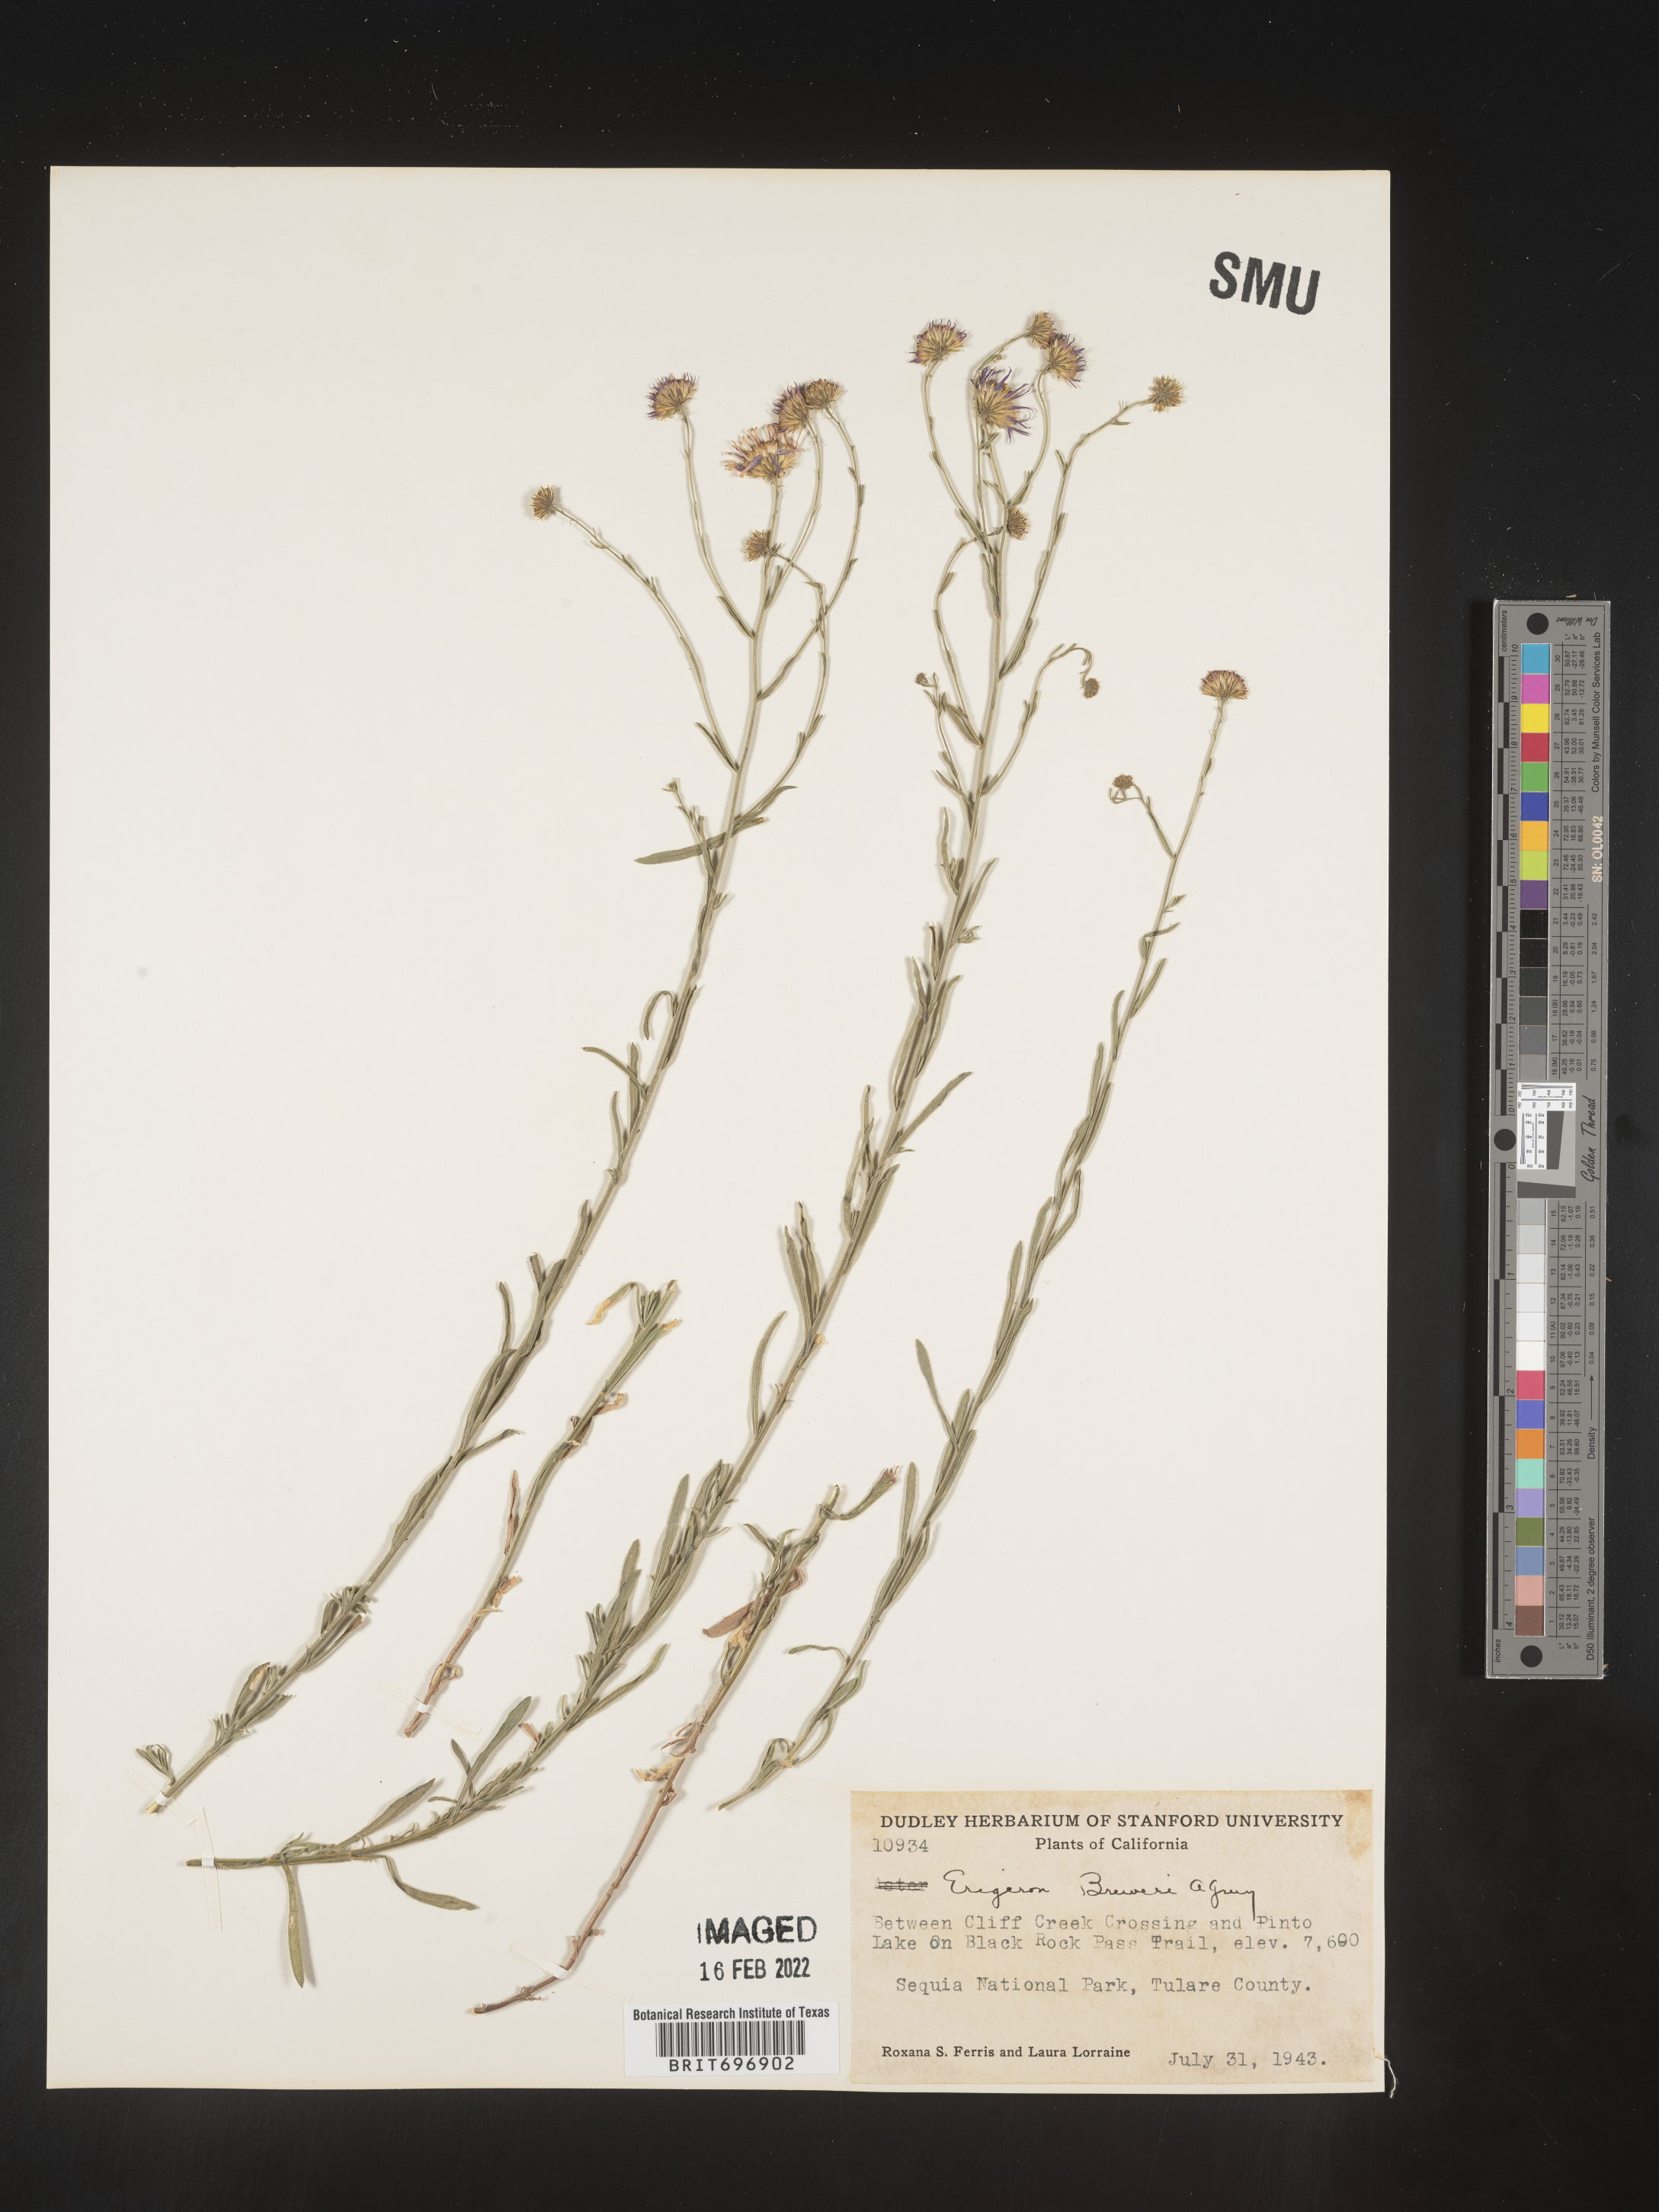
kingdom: Plantae
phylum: Tracheophyta
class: Magnoliopsida
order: Asterales
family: Asteraceae
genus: Erigeron
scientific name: Erigeron breweri
